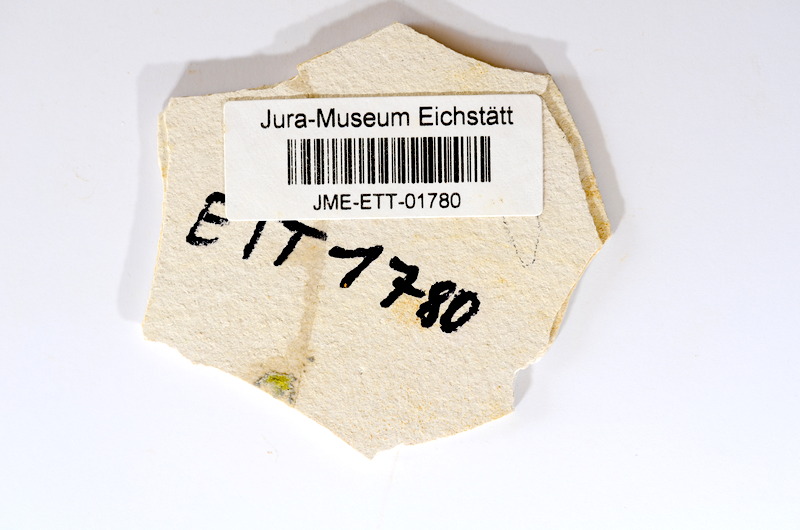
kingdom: Animalia
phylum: Chordata
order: Salmoniformes
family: Orthogonikleithridae
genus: Orthogonikleithrus
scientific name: Orthogonikleithrus hoelli
